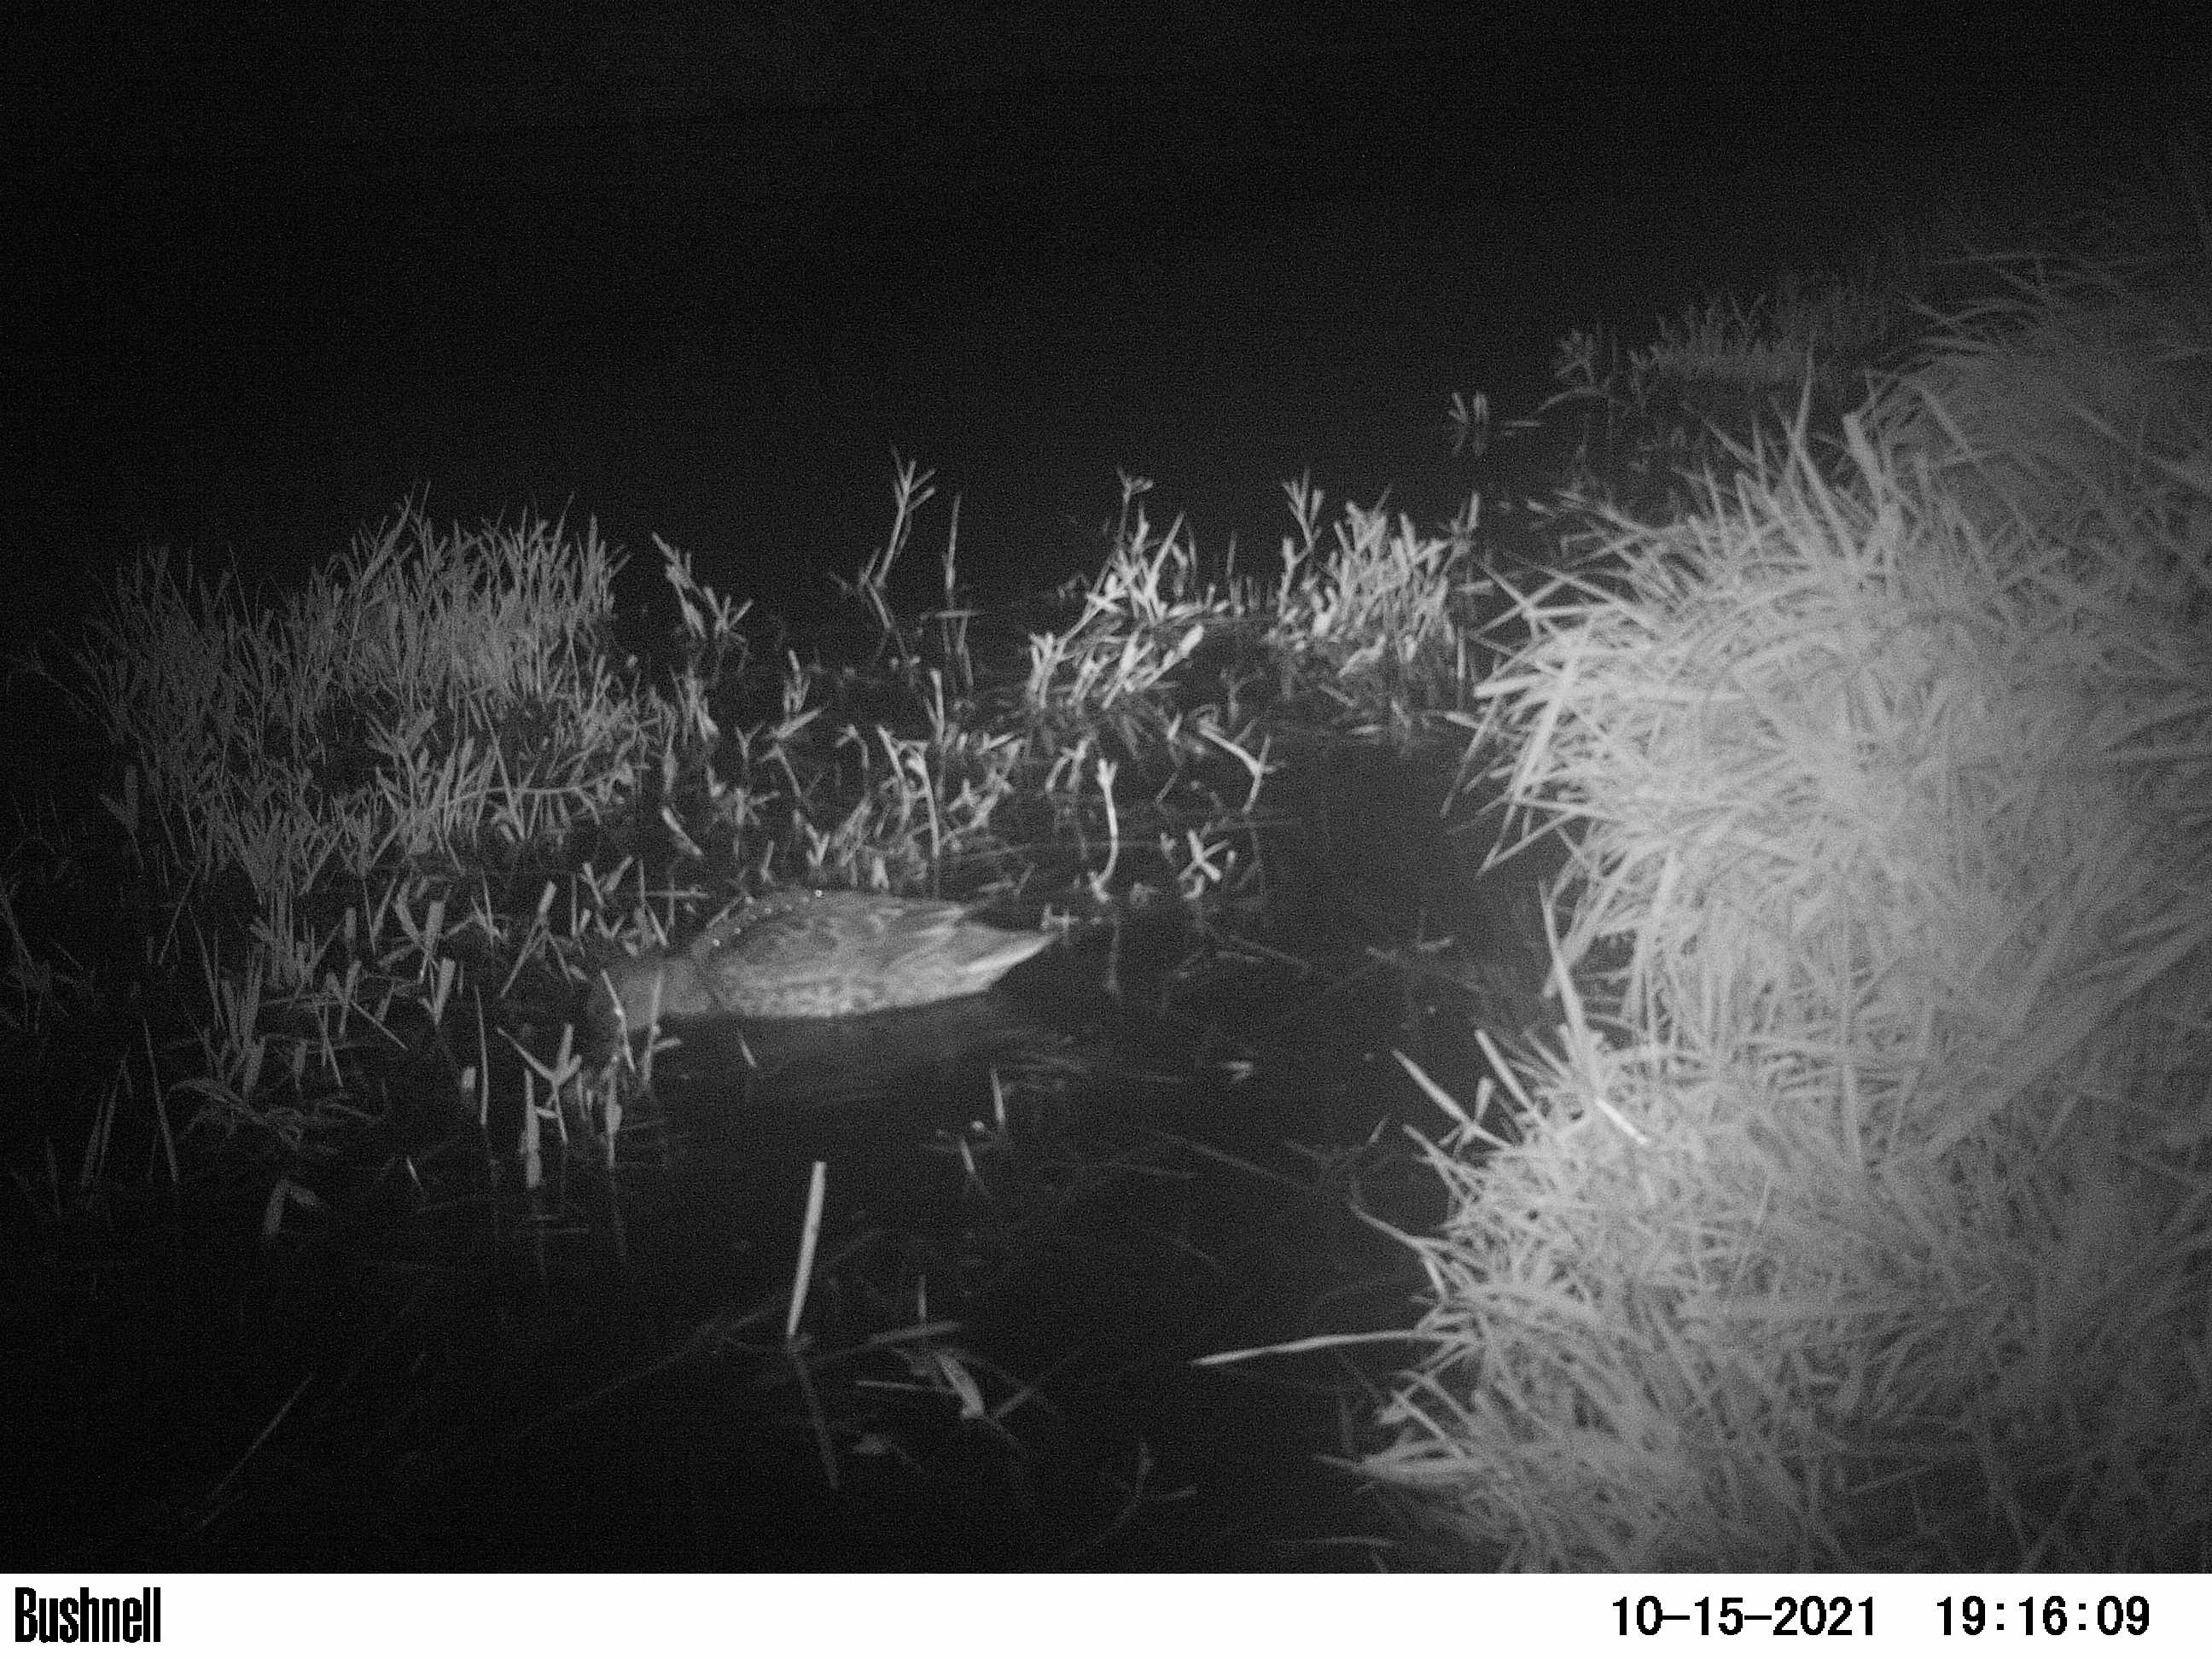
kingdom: Animalia
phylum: Chordata
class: Aves
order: Anseriformes
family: Anatidae
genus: Anas
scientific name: Anas
